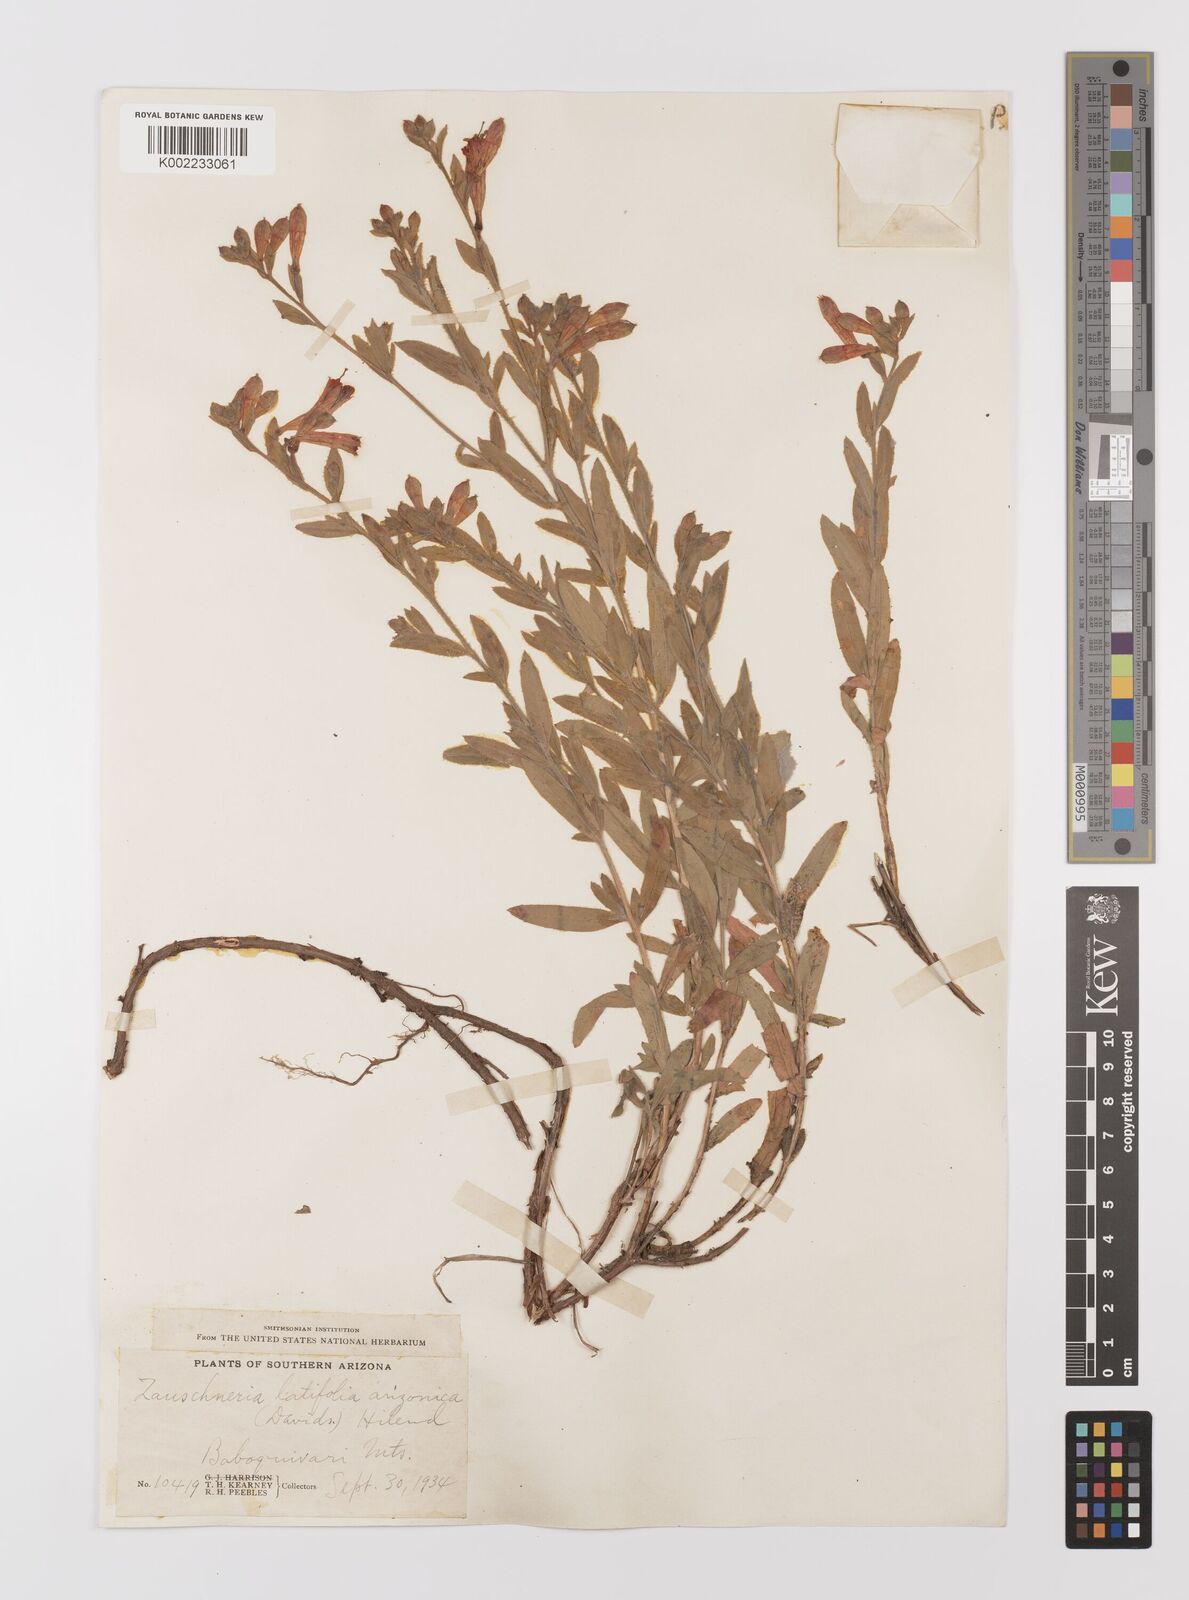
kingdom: Plantae
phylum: Tracheophyta
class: Magnoliopsida
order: Myrtales
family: Onagraceae
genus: Epilobium
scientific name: Epilobium
